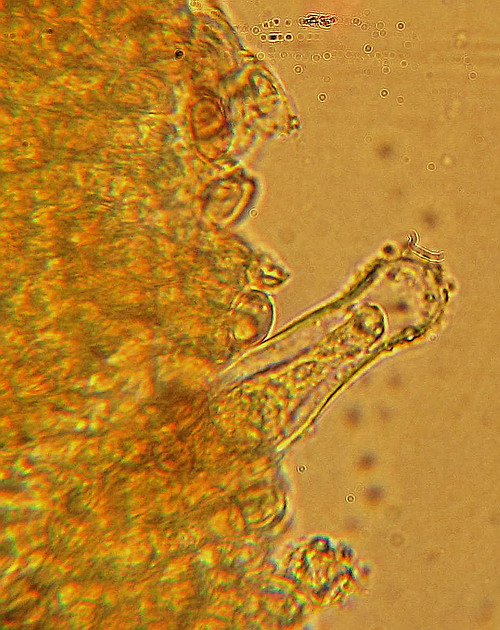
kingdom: Fungi
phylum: Basidiomycota
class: Agaricomycetes
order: Agaricales
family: Inocybaceae
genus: Inocybe
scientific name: Inocybe griseolilacina
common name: lillagrå trævlhat
